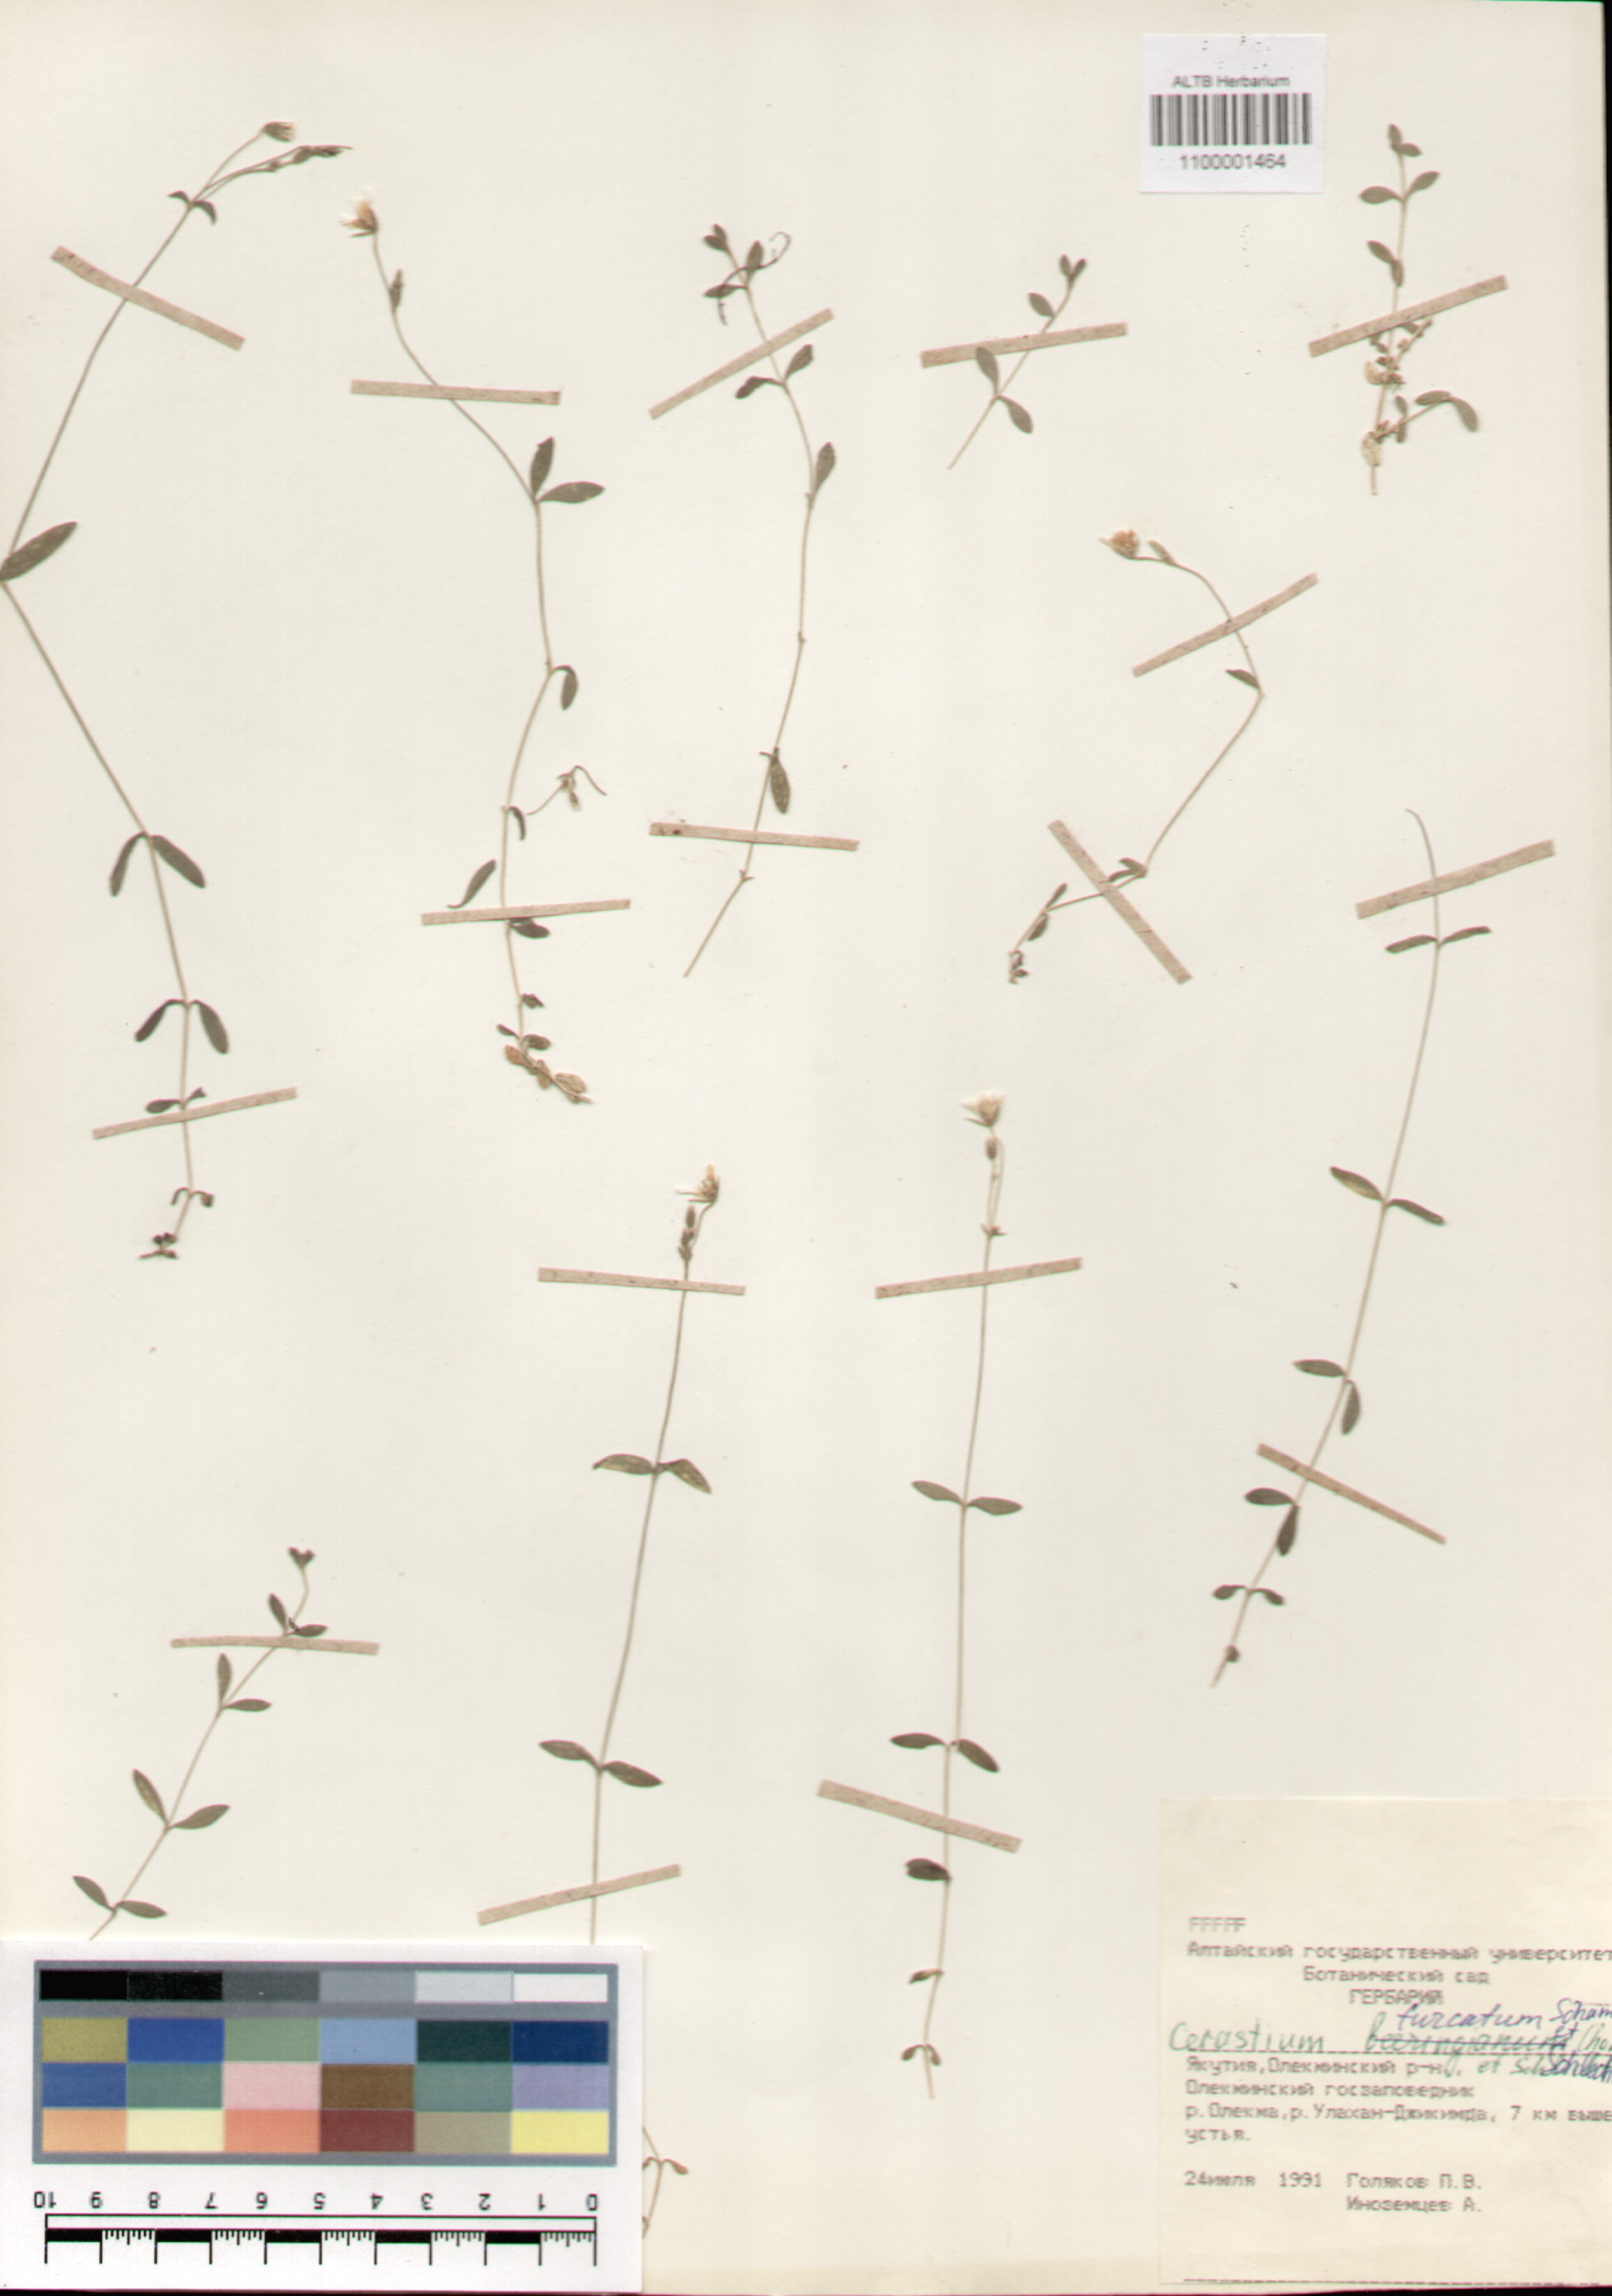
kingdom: Plantae
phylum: Tracheophyta
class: Magnoliopsida
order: Caryophyllales
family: Caryophyllaceae
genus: Cerastium
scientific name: Cerastium furcatum
